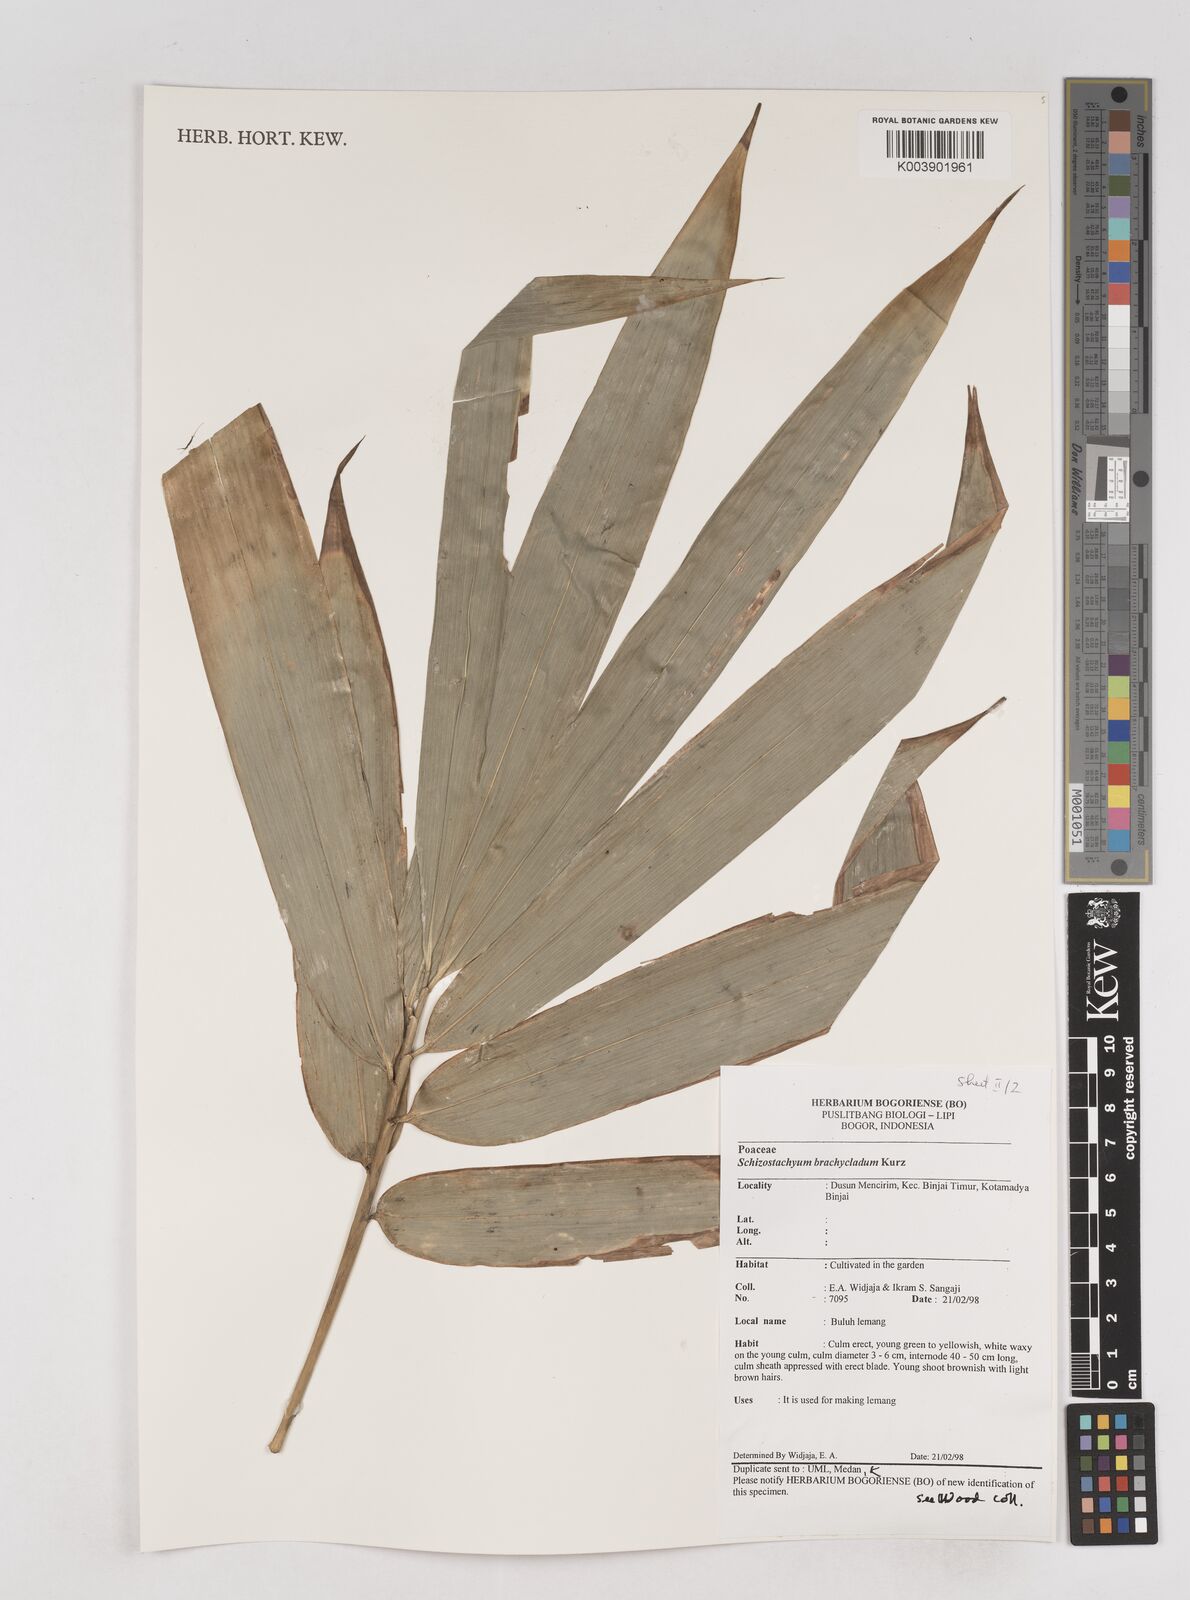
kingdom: Plantae
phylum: Tracheophyta
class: Liliopsida
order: Poales
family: Poaceae
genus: Schizostachyum
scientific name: Schizostachyum brachycladum
